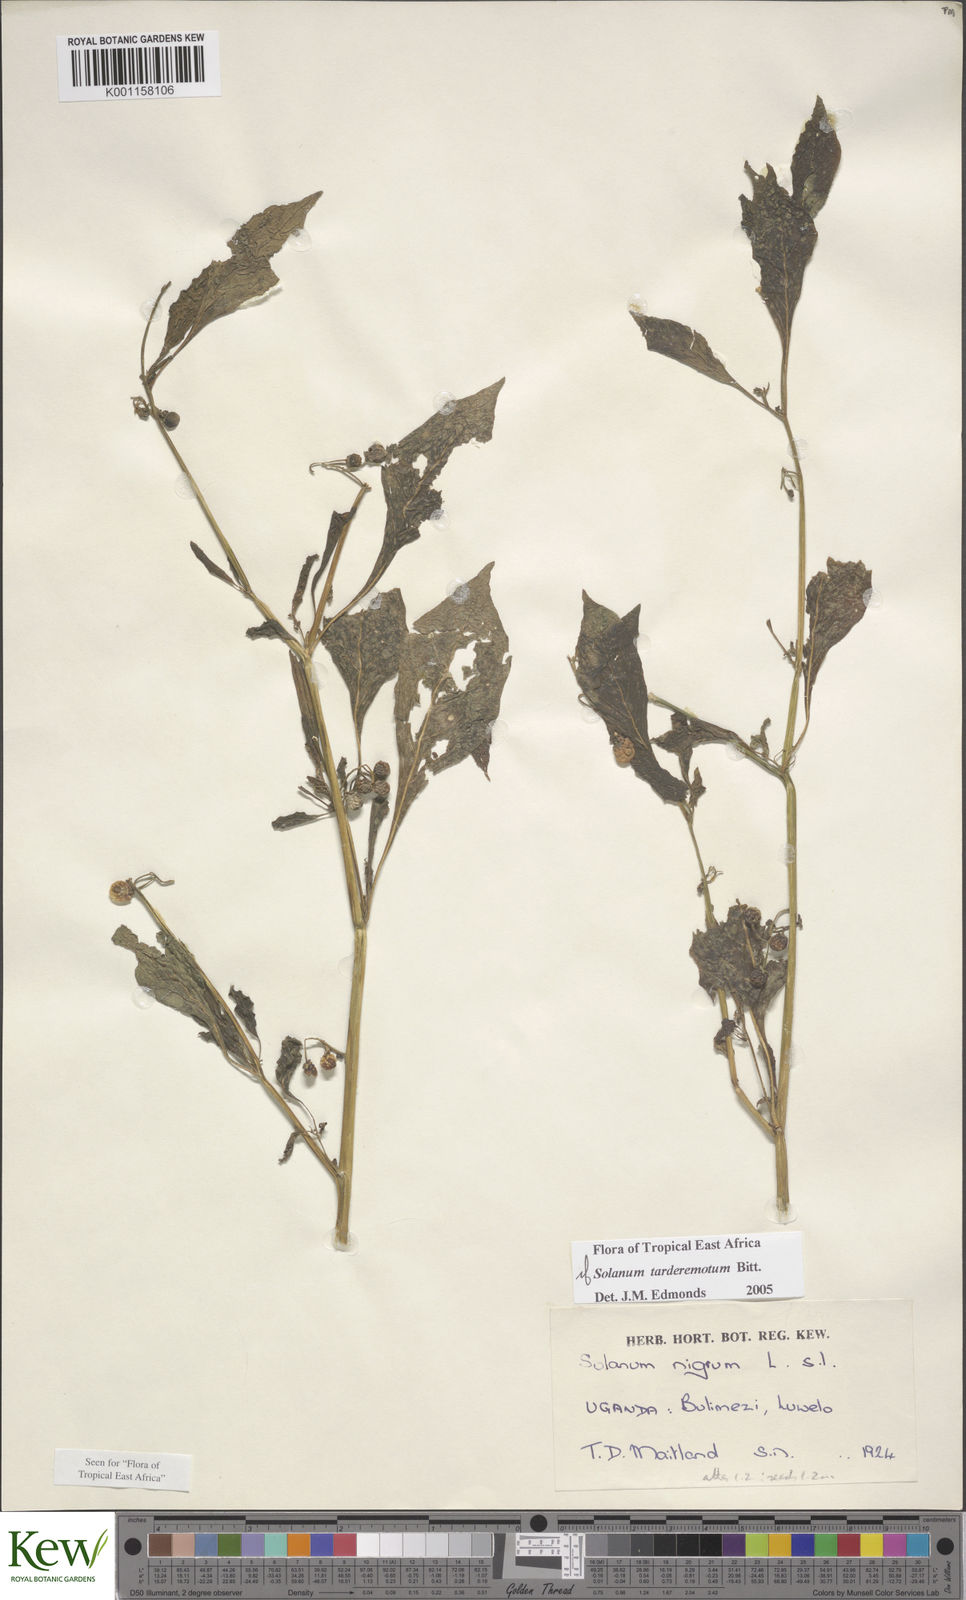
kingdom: Plantae
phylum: Tracheophyta
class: Magnoliopsida
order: Solanales
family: Solanaceae
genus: Solanum
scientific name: Solanum tarderemotum
